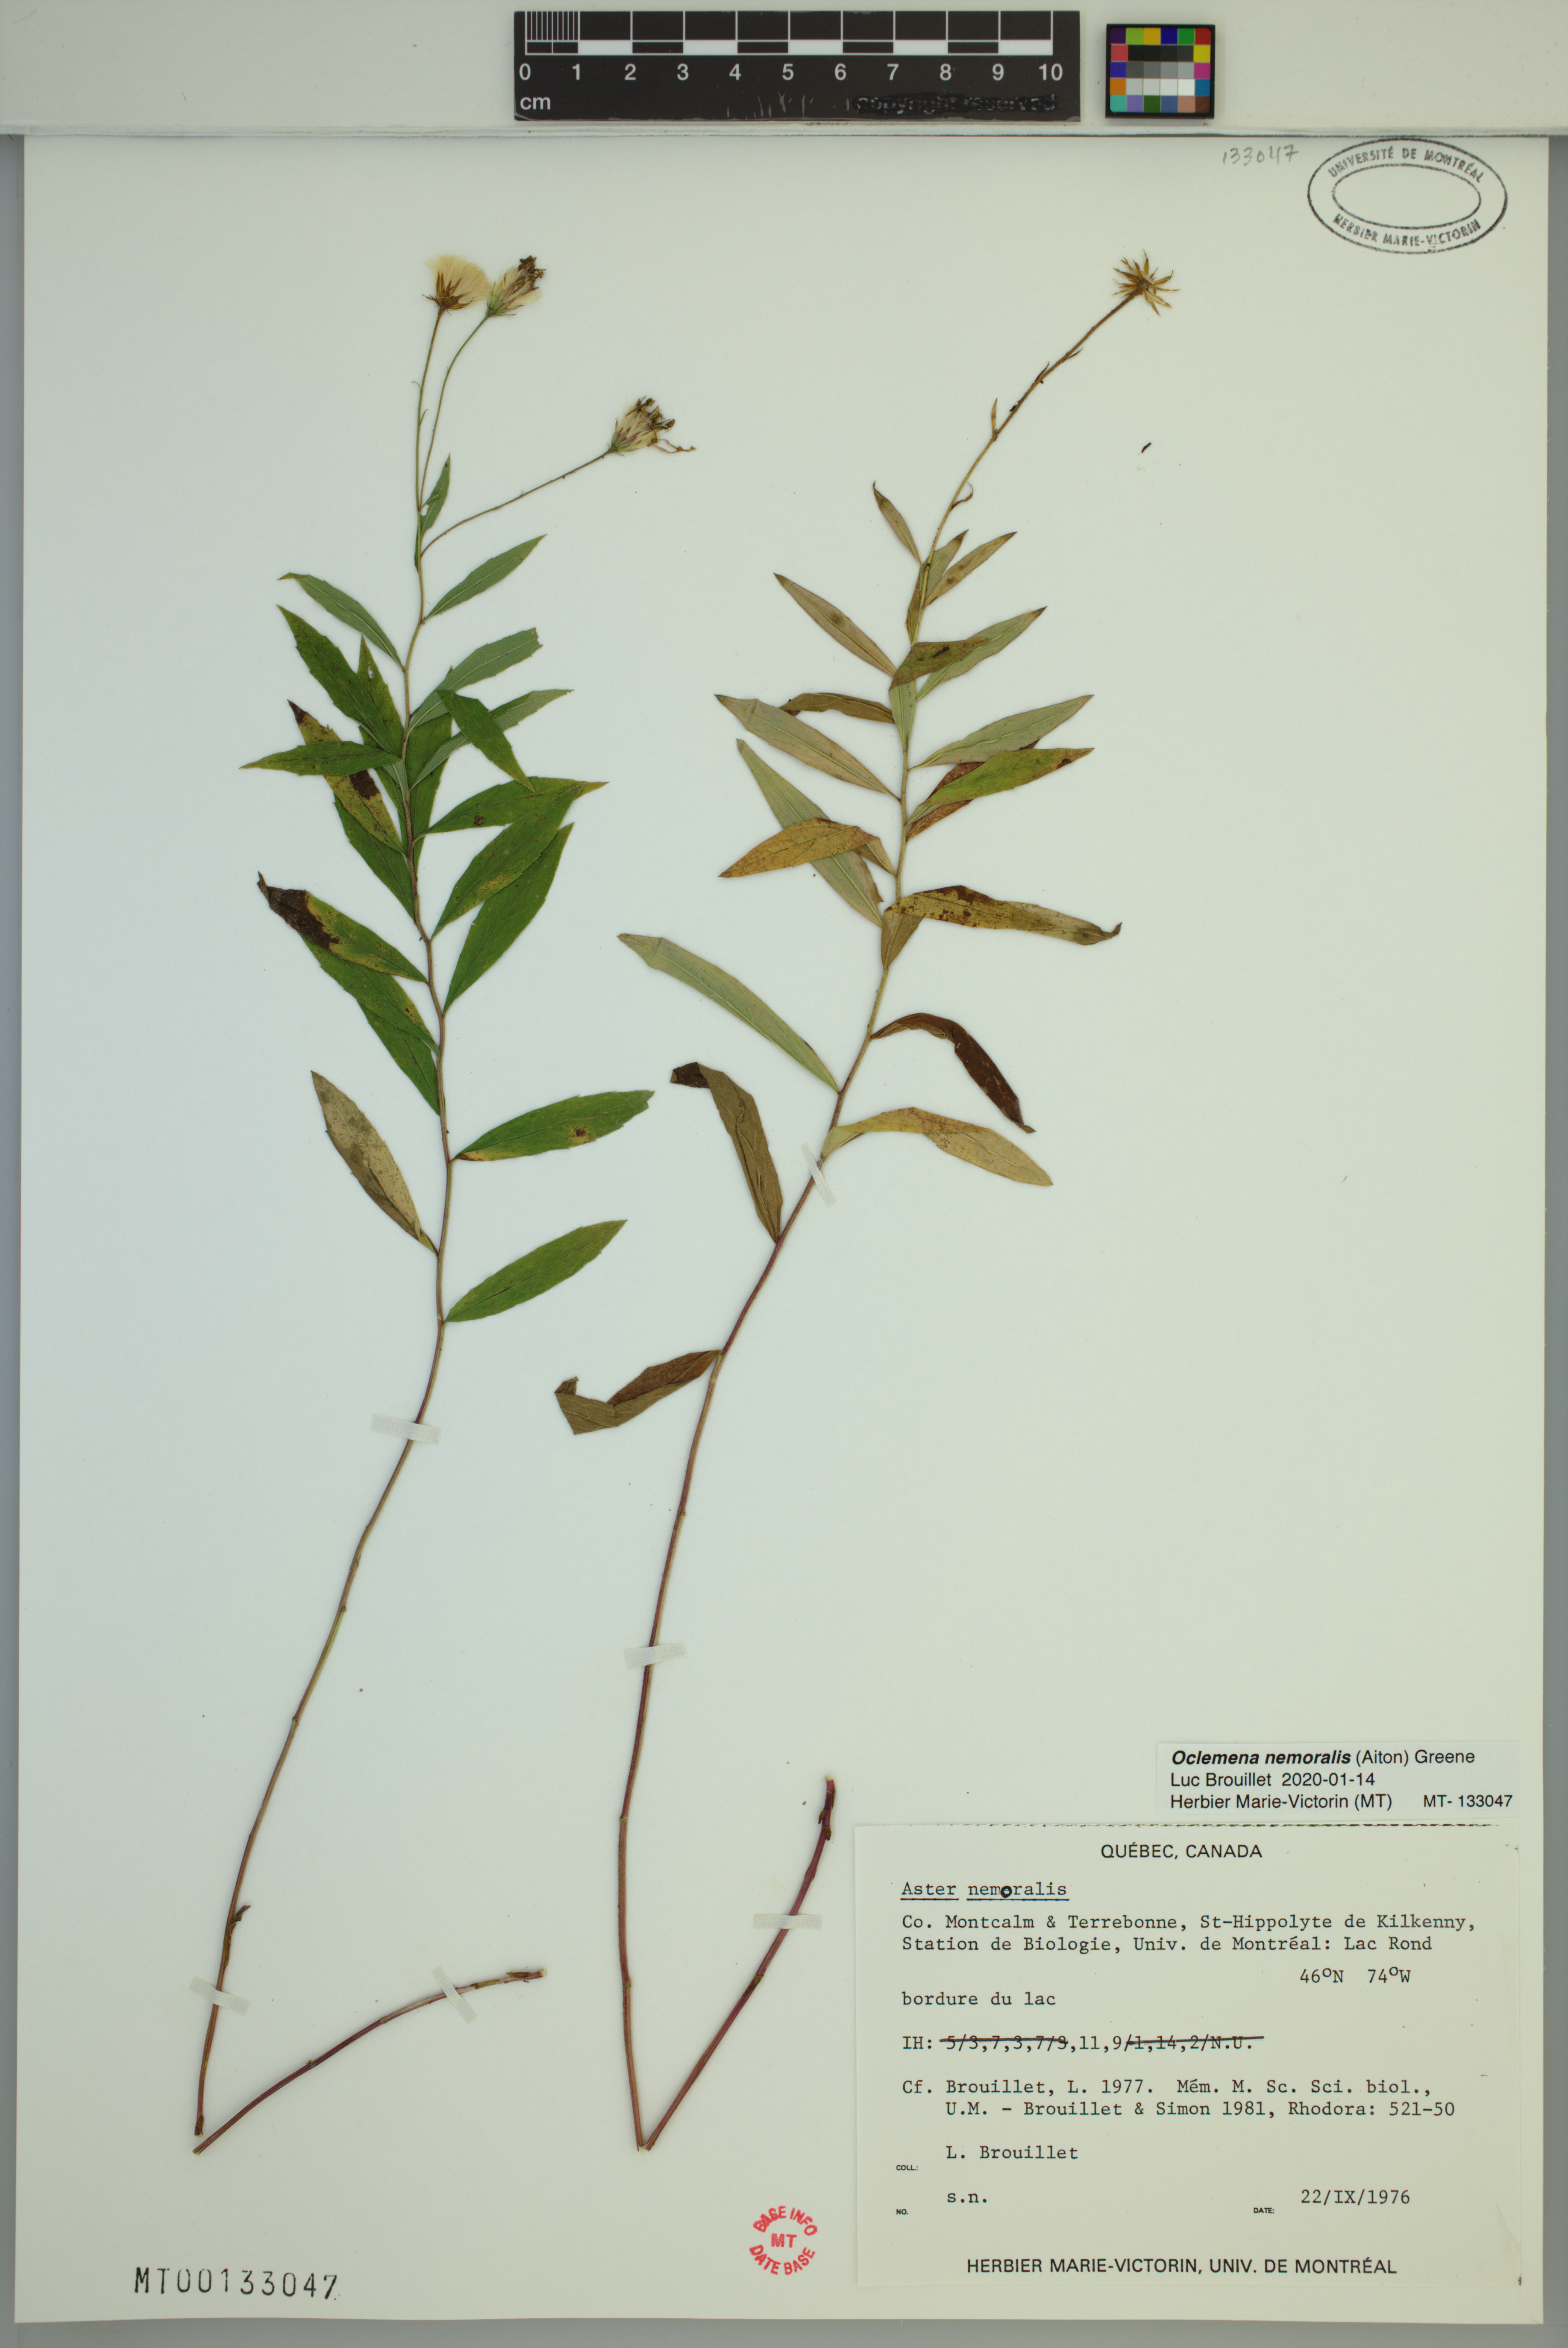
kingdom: Plantae
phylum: Tracheophyta
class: Magnoliopsida
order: Asterales
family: Asteraceae
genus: Oclemena
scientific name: Oclemena nemoralis
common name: Bog aster
